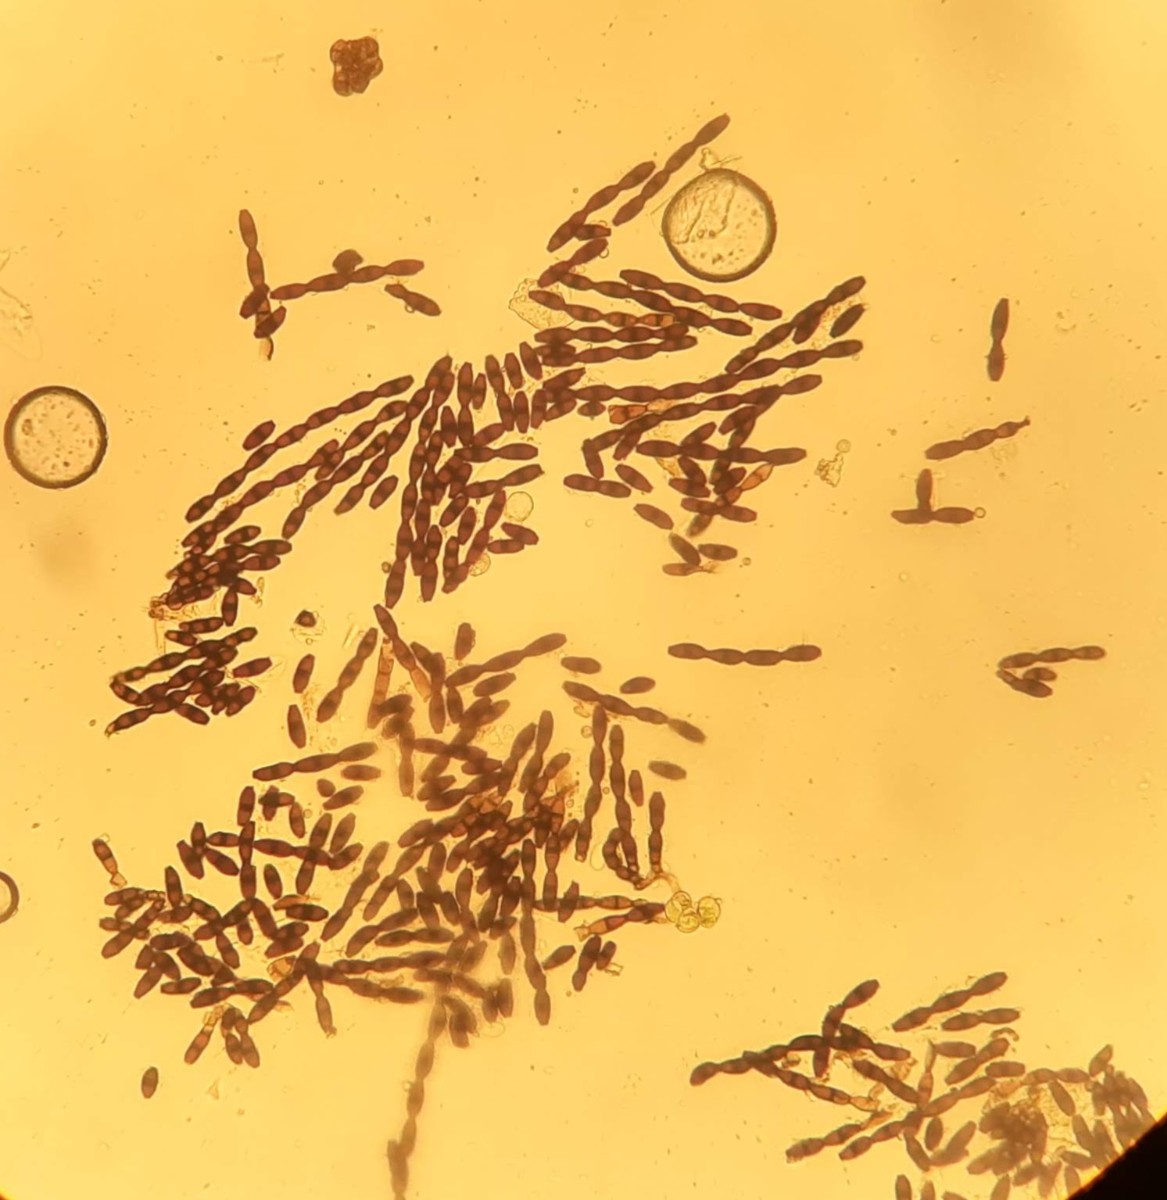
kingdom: Fungi
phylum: Ascomycota
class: Leotiomycetes
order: Helotiales
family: Helotiaceae
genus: Bispora
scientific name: Bispora pallescens
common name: måtte-snitskive
